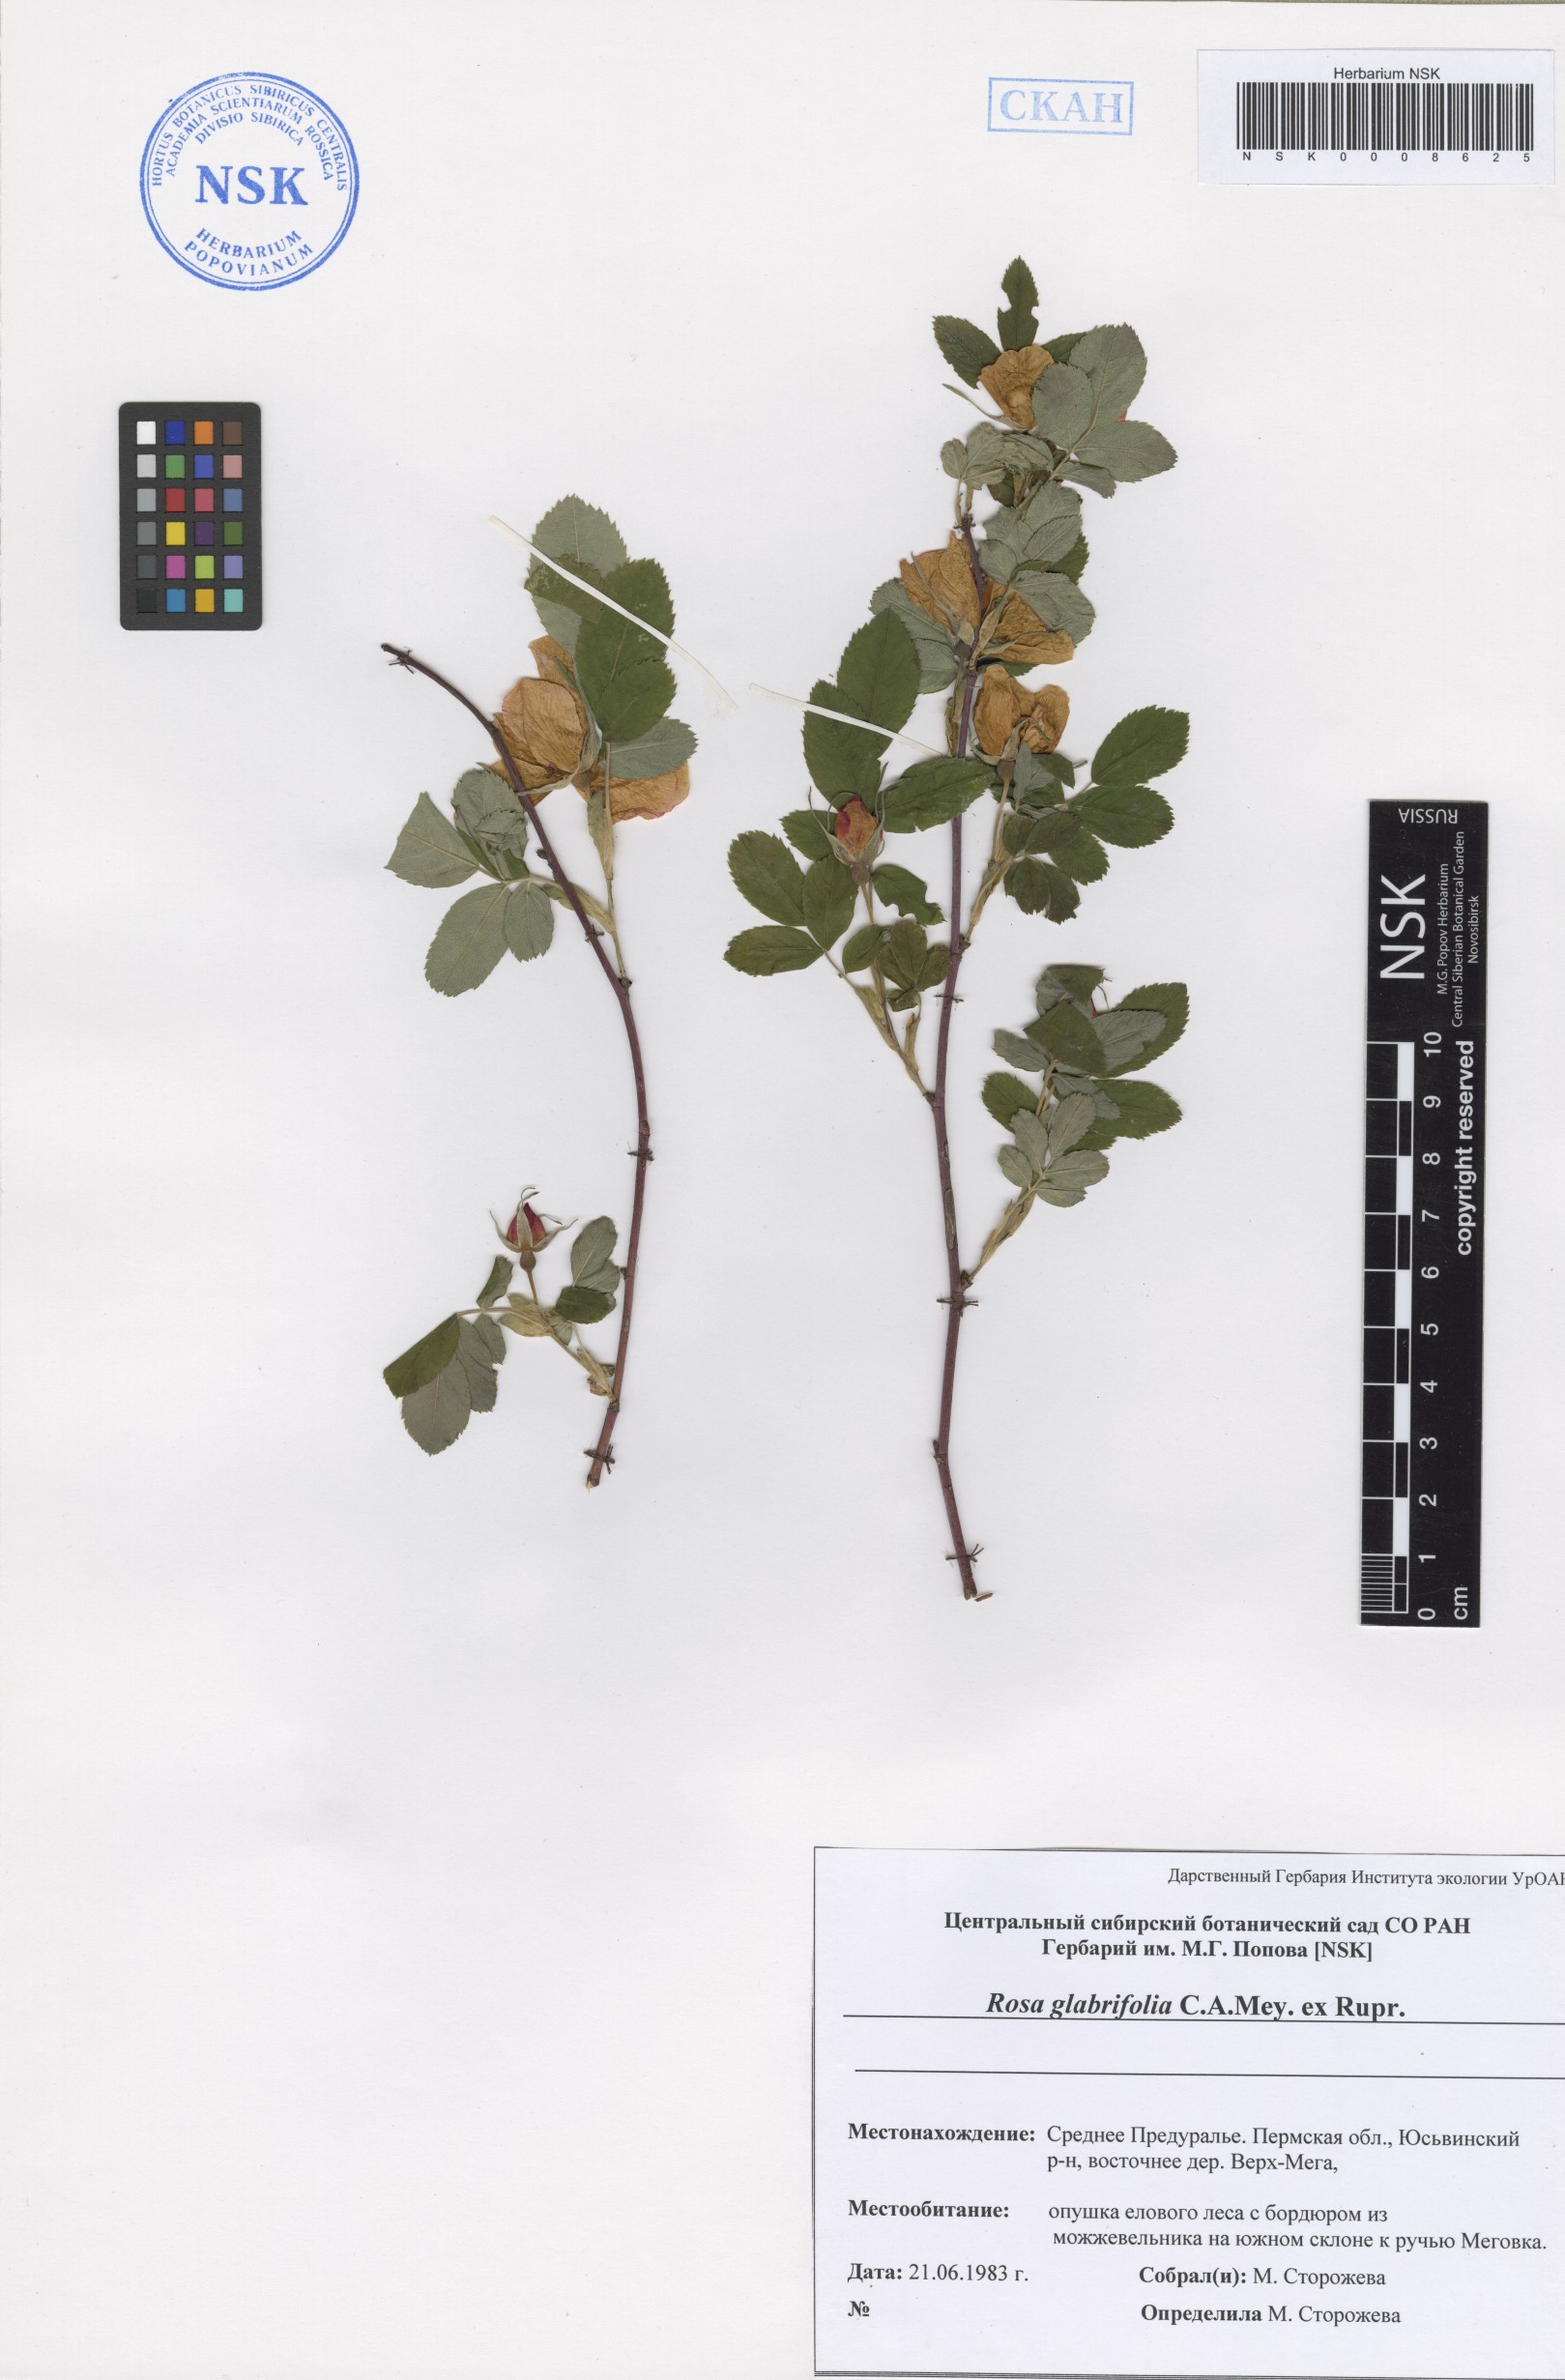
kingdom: Plantae
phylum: Tracheophyta
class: Magnoliopsida
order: Rosales
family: Rosaceae
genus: Rosa
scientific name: Rosa glabrifolia
